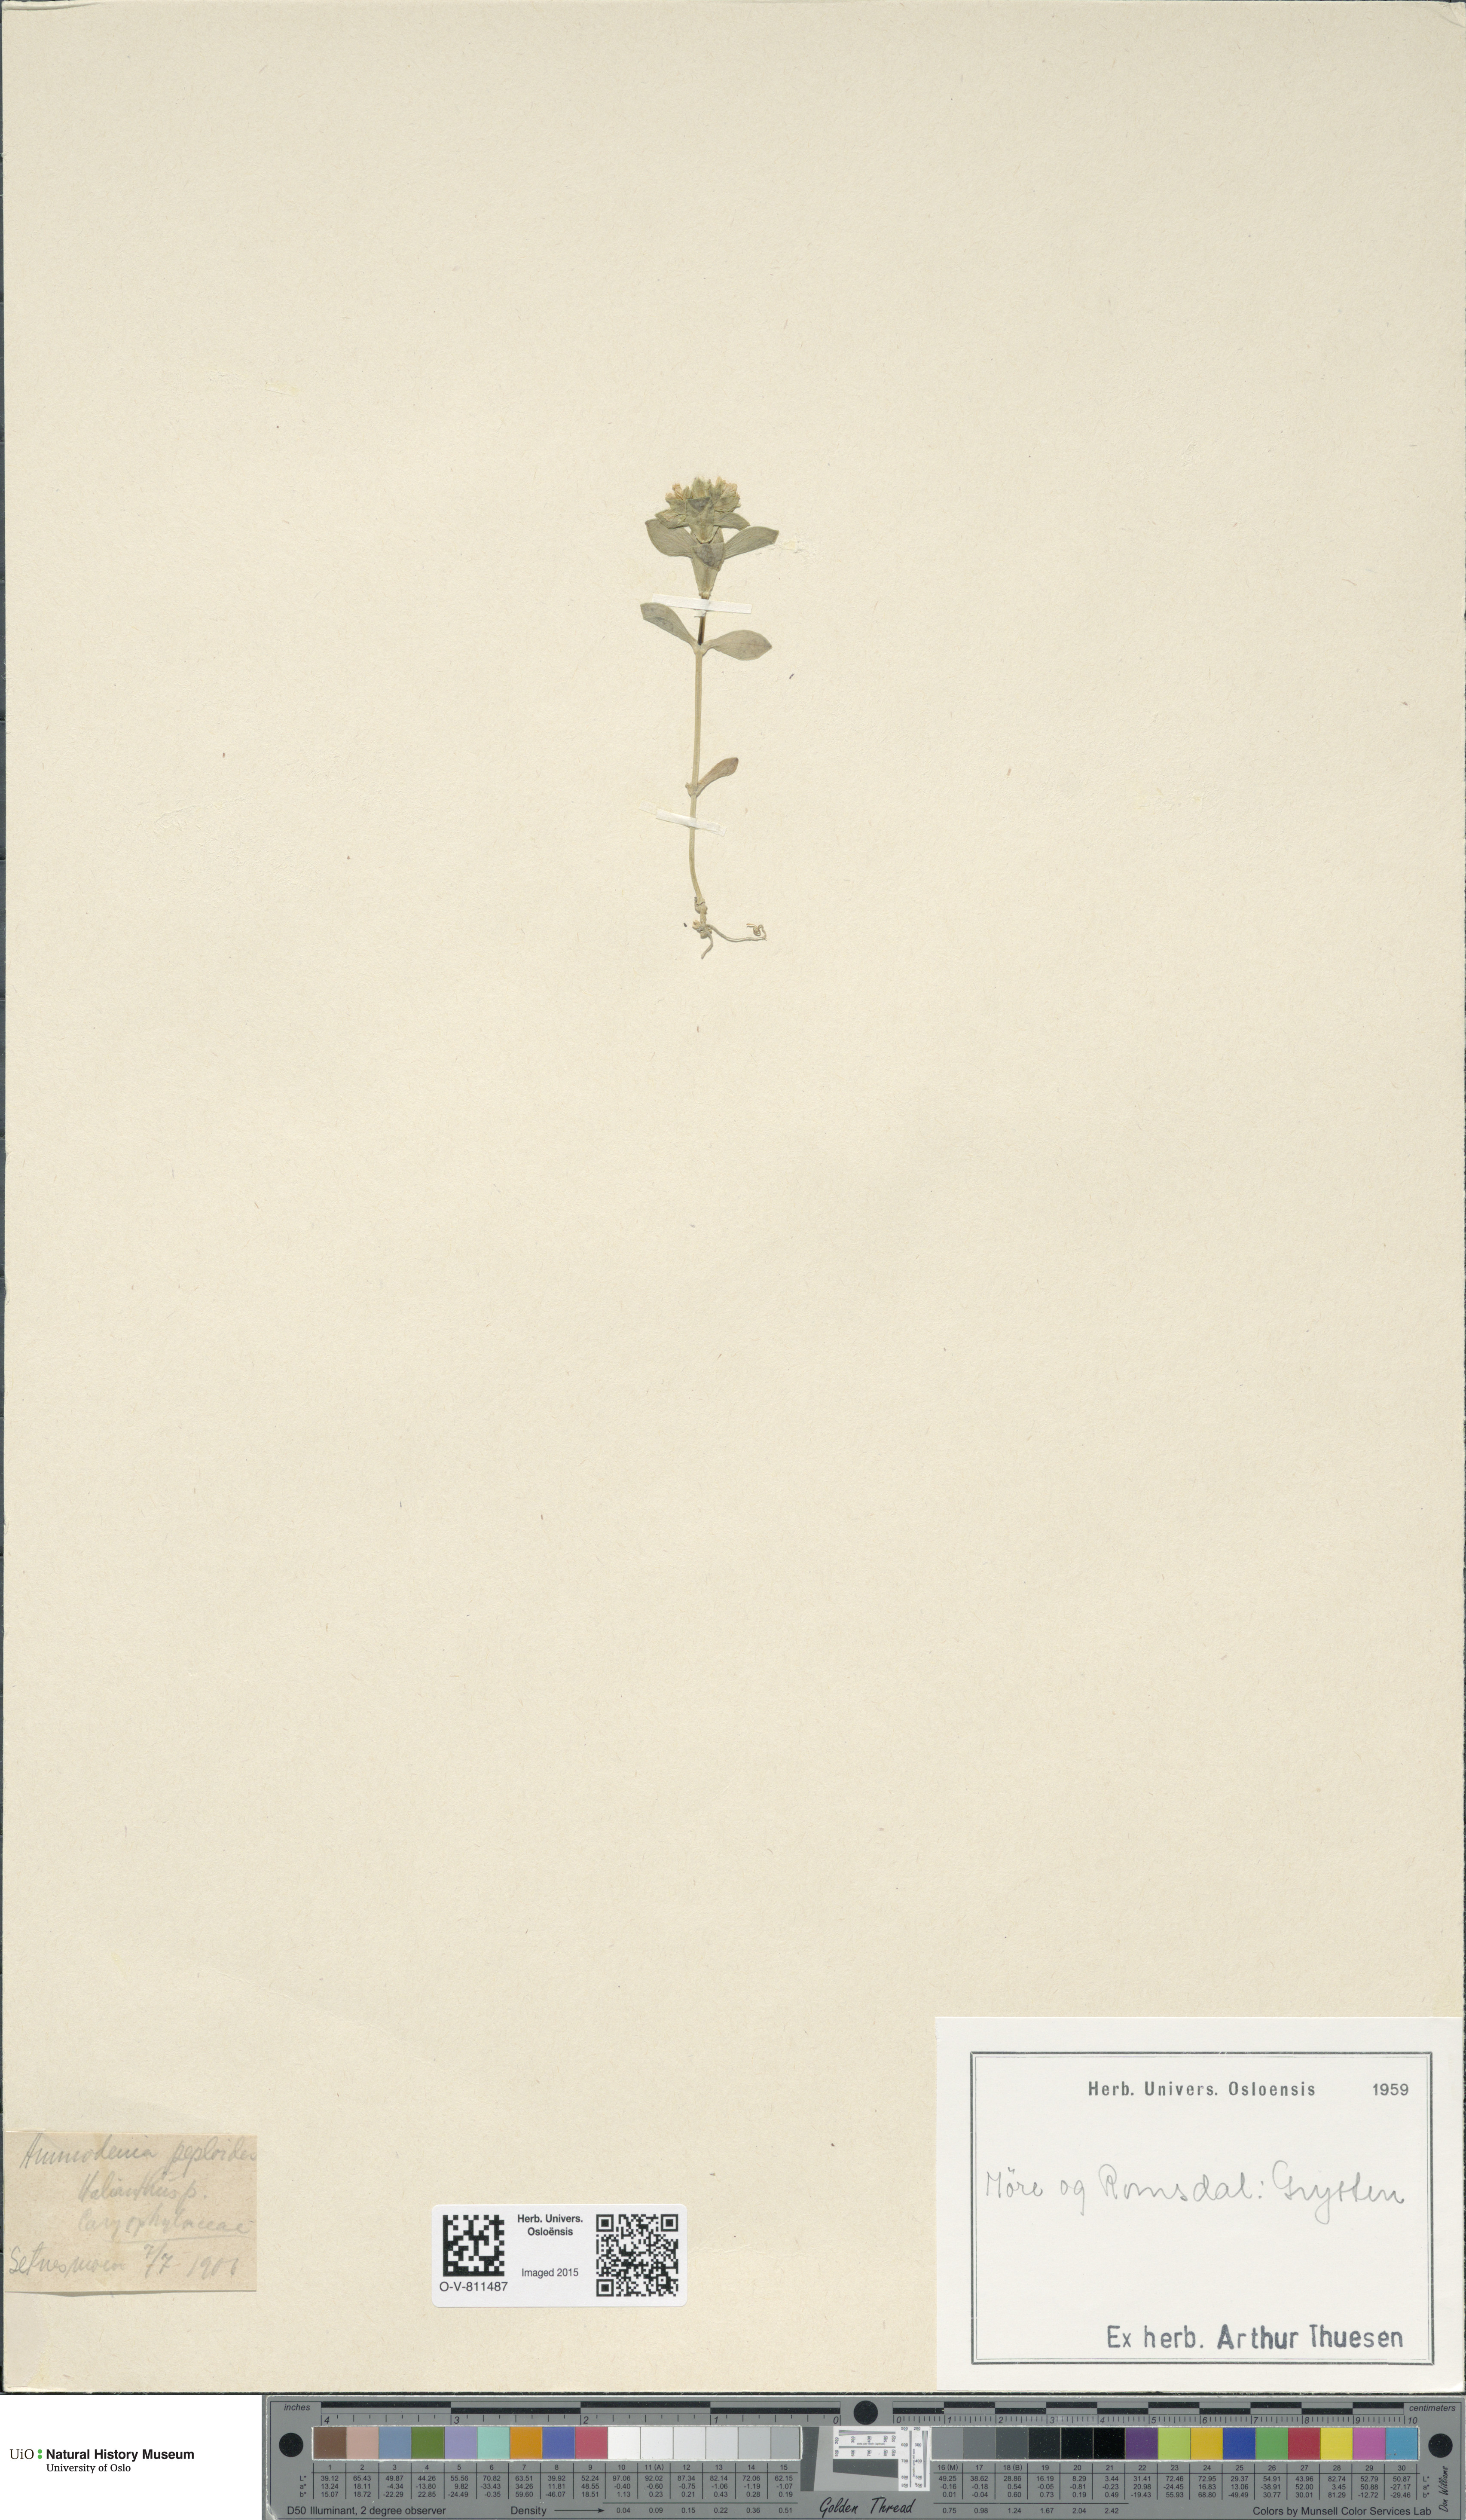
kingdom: Plantae
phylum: Tracheophyta
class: Magnoliopsida
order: Caryophyllales
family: Caryophyllaceae
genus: Honckenya
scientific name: Honckenya peploides
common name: Sea sandwort
